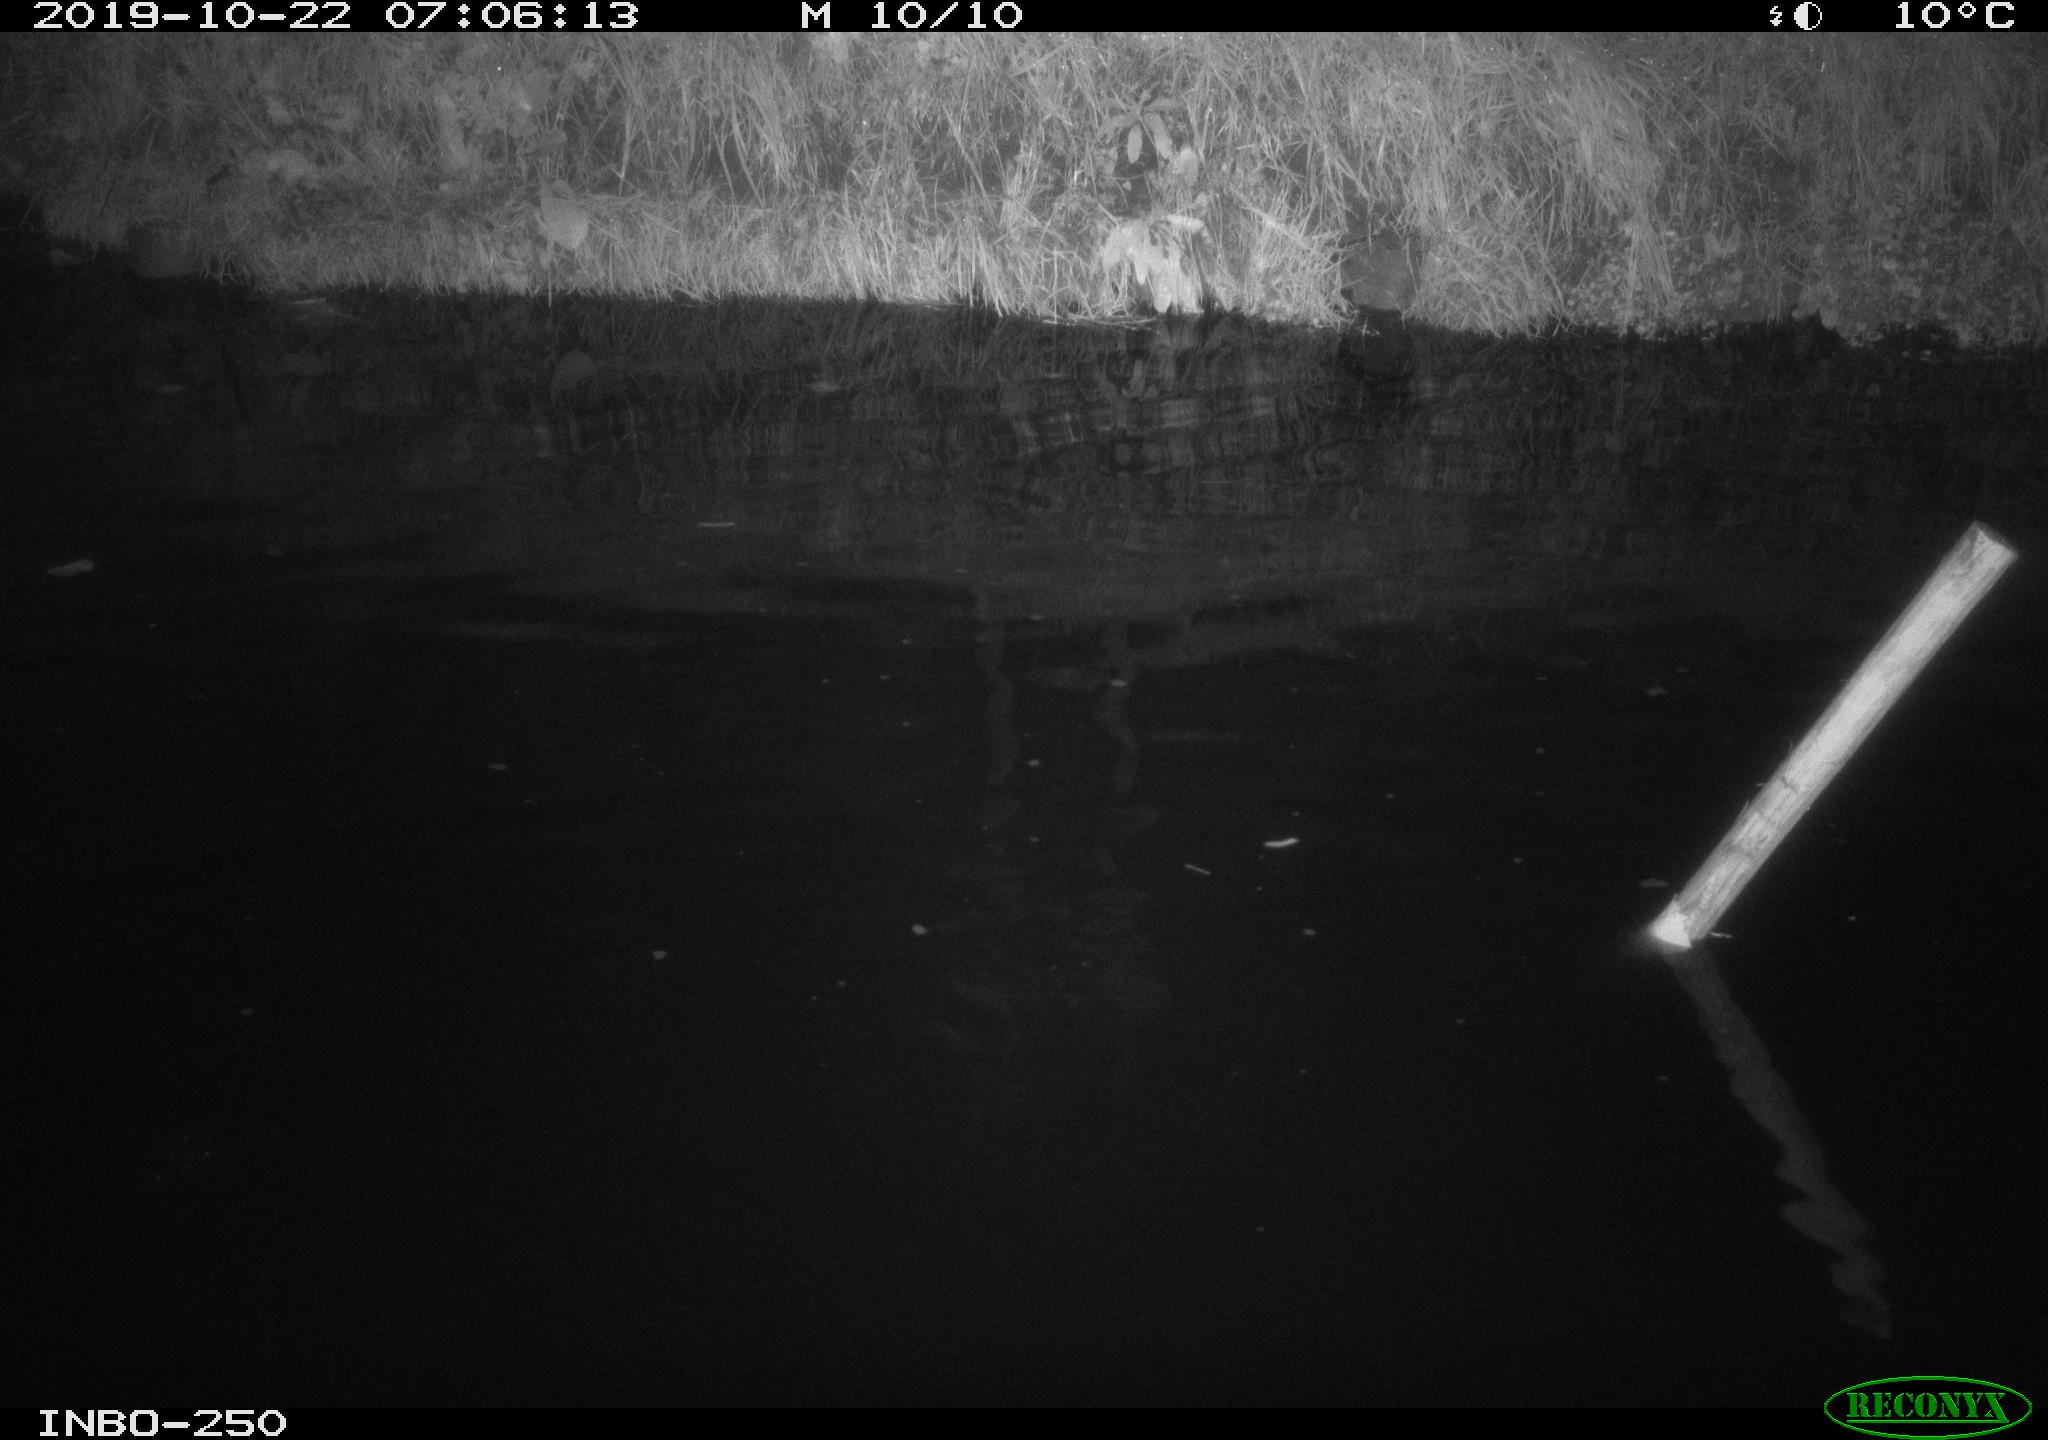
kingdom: Animalia
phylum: Chordata
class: Aves
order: Anseriformes
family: Anatidae
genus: Anas
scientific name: Anas platyrhynchos
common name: Mallard
